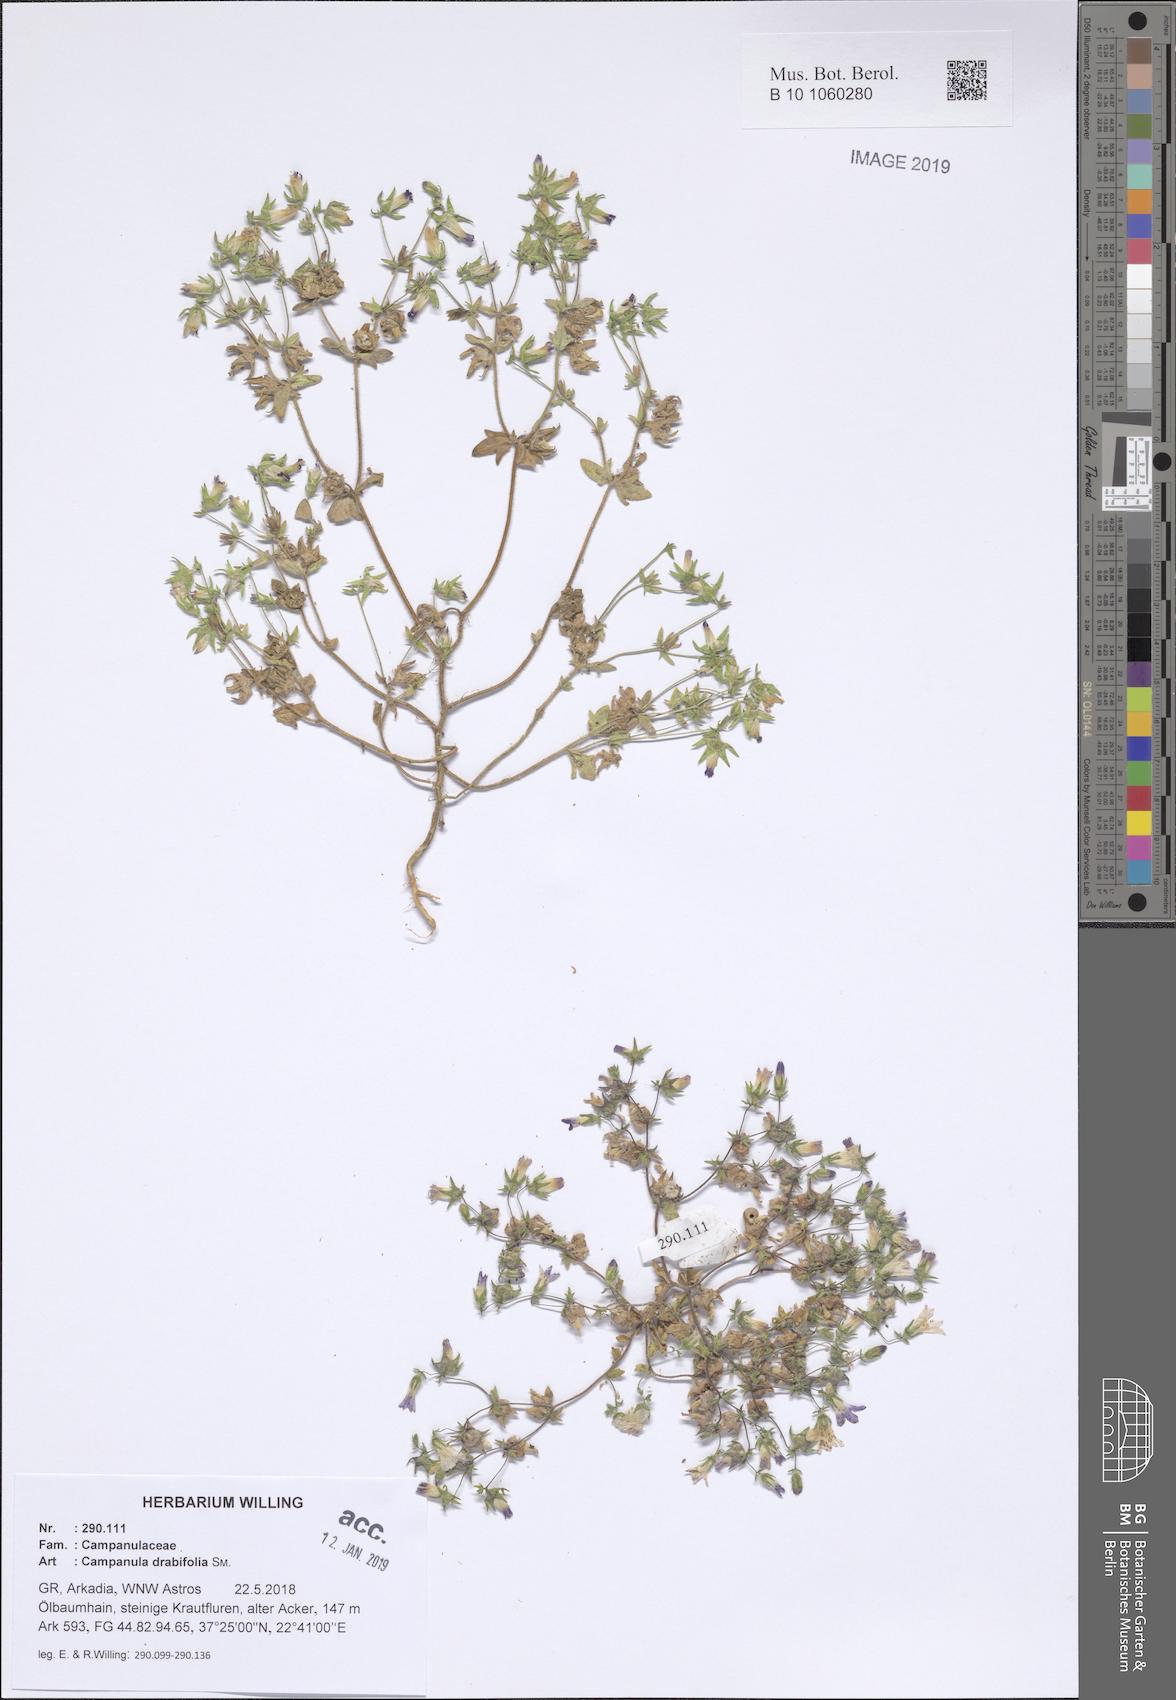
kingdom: Plantae
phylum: Tracheophyta
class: Magnoliopsida
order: Asterales
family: Campanulaceae
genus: Campanula
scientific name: Campanula drabifolia
